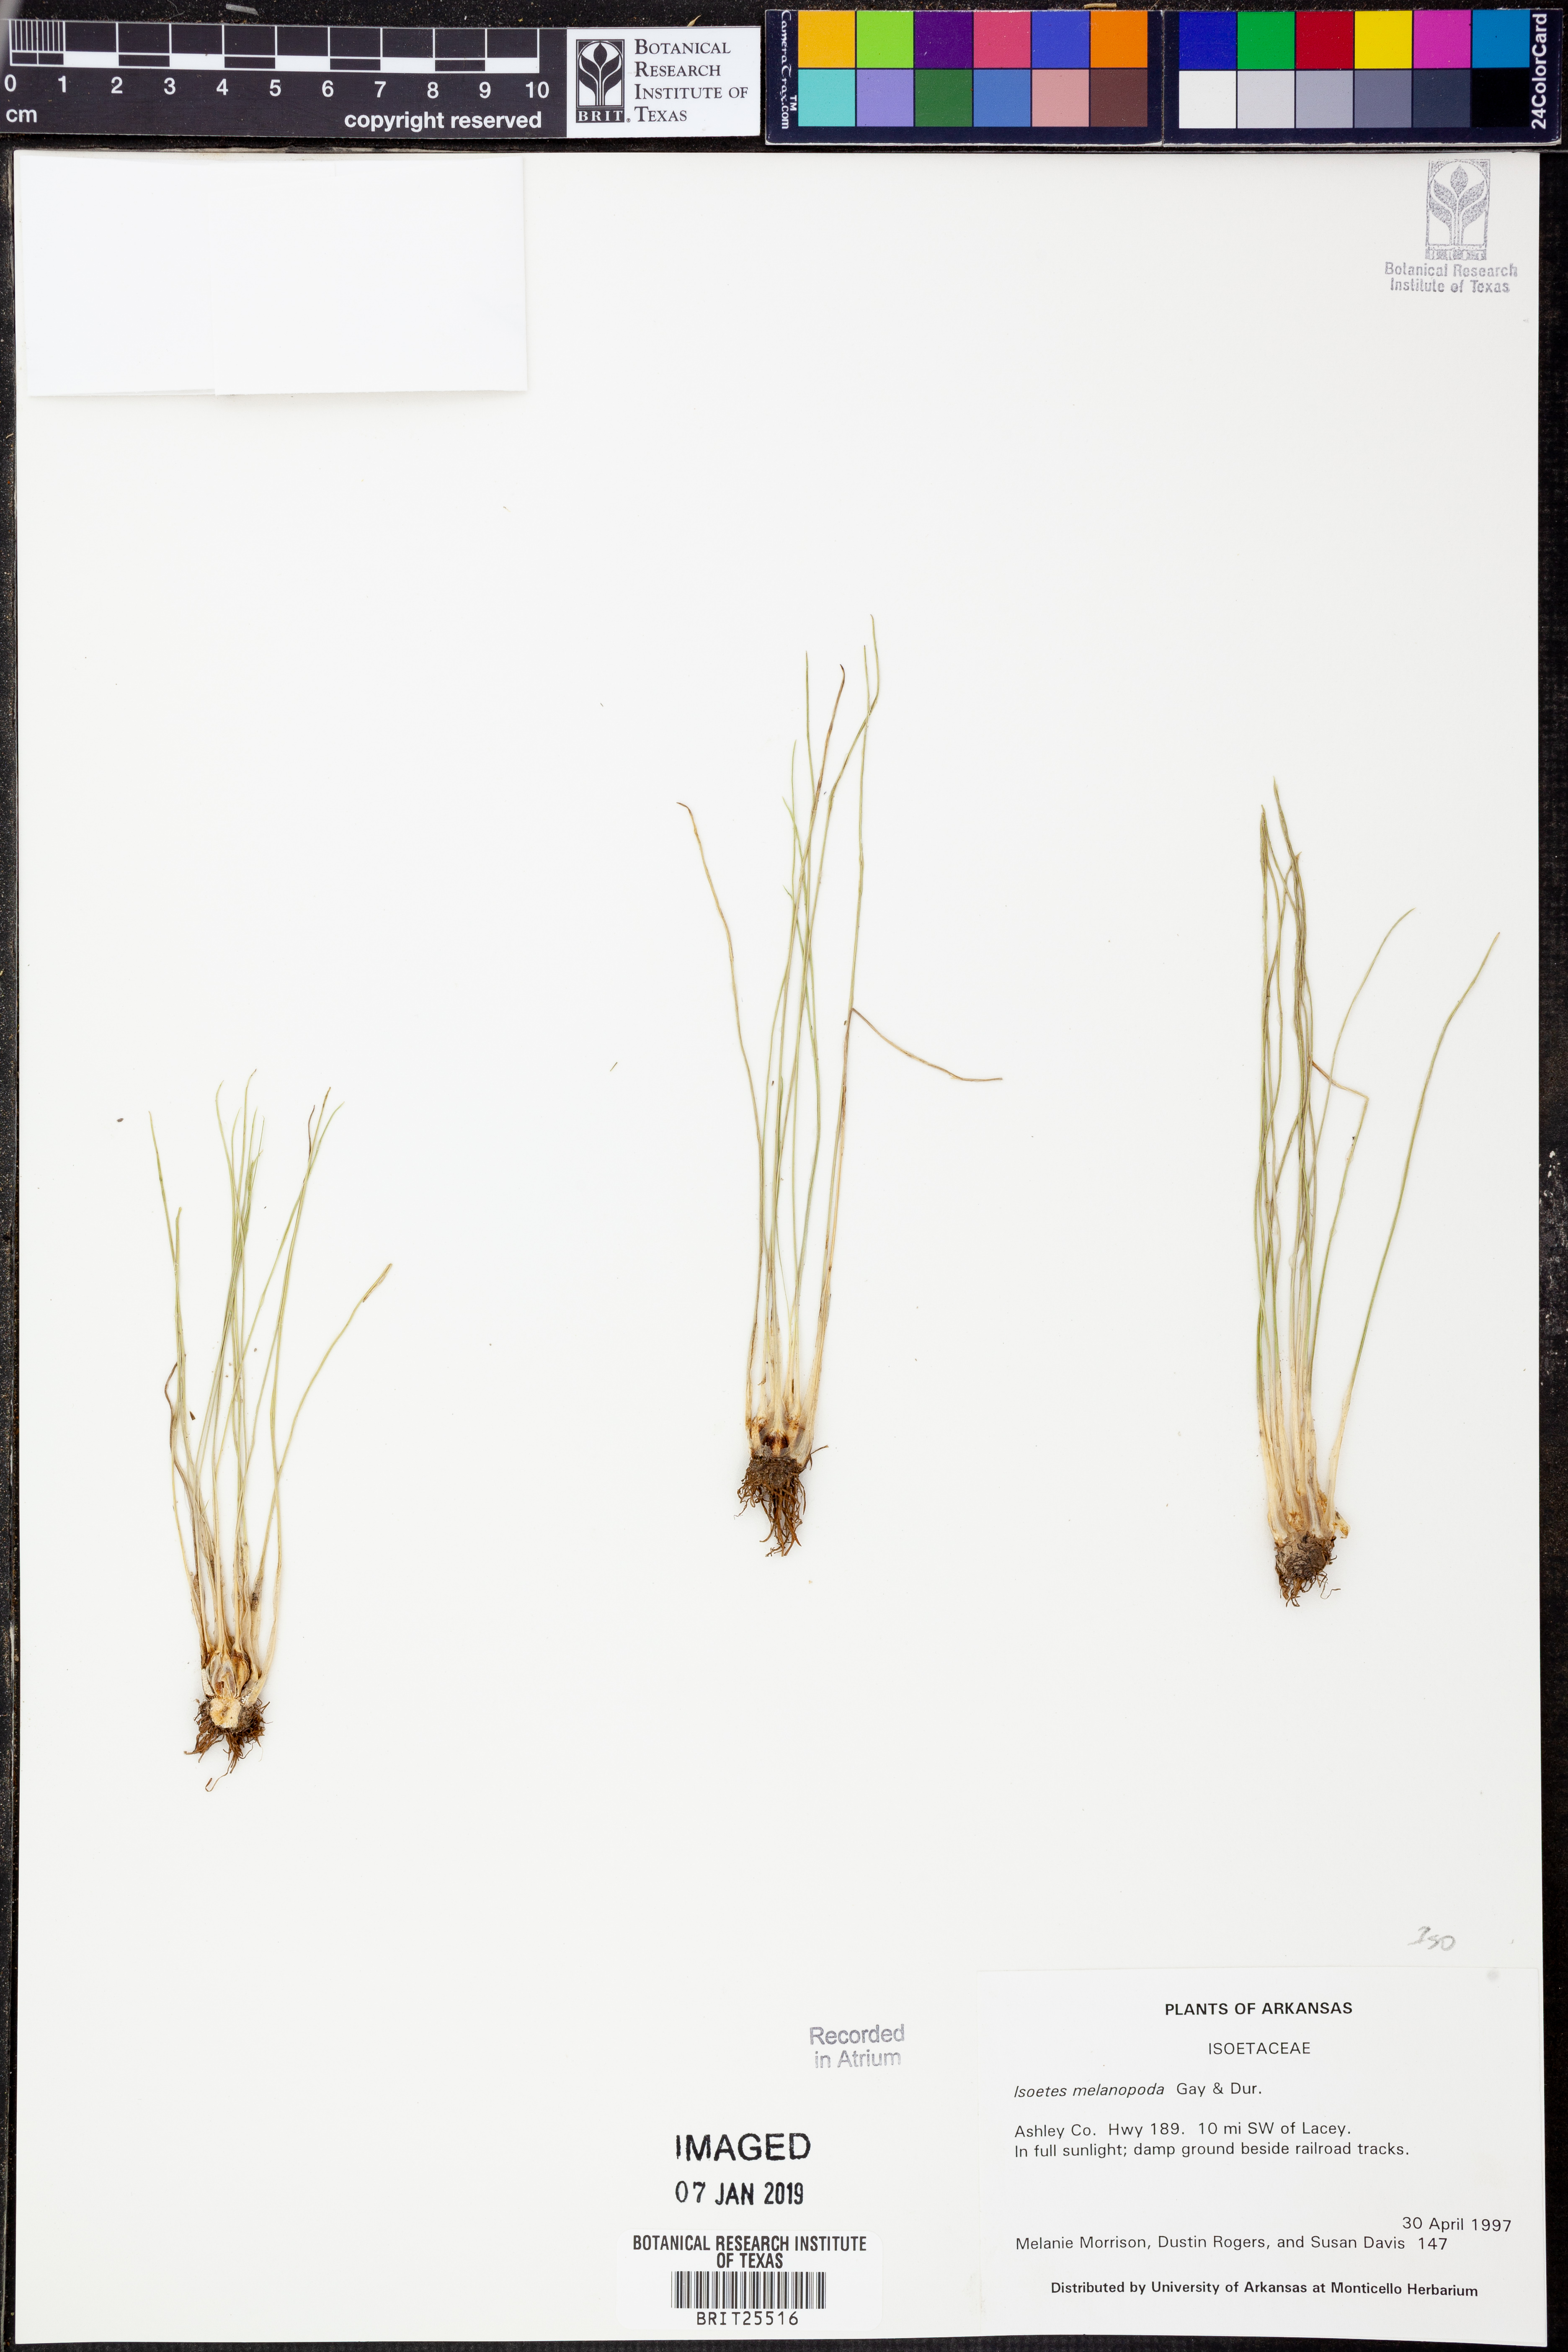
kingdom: Plantae
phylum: Tracheophyta
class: Lycopodiopsida
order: Isoetales
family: Isoetaceae
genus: Isoetes
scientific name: Isoetes melanopoda
